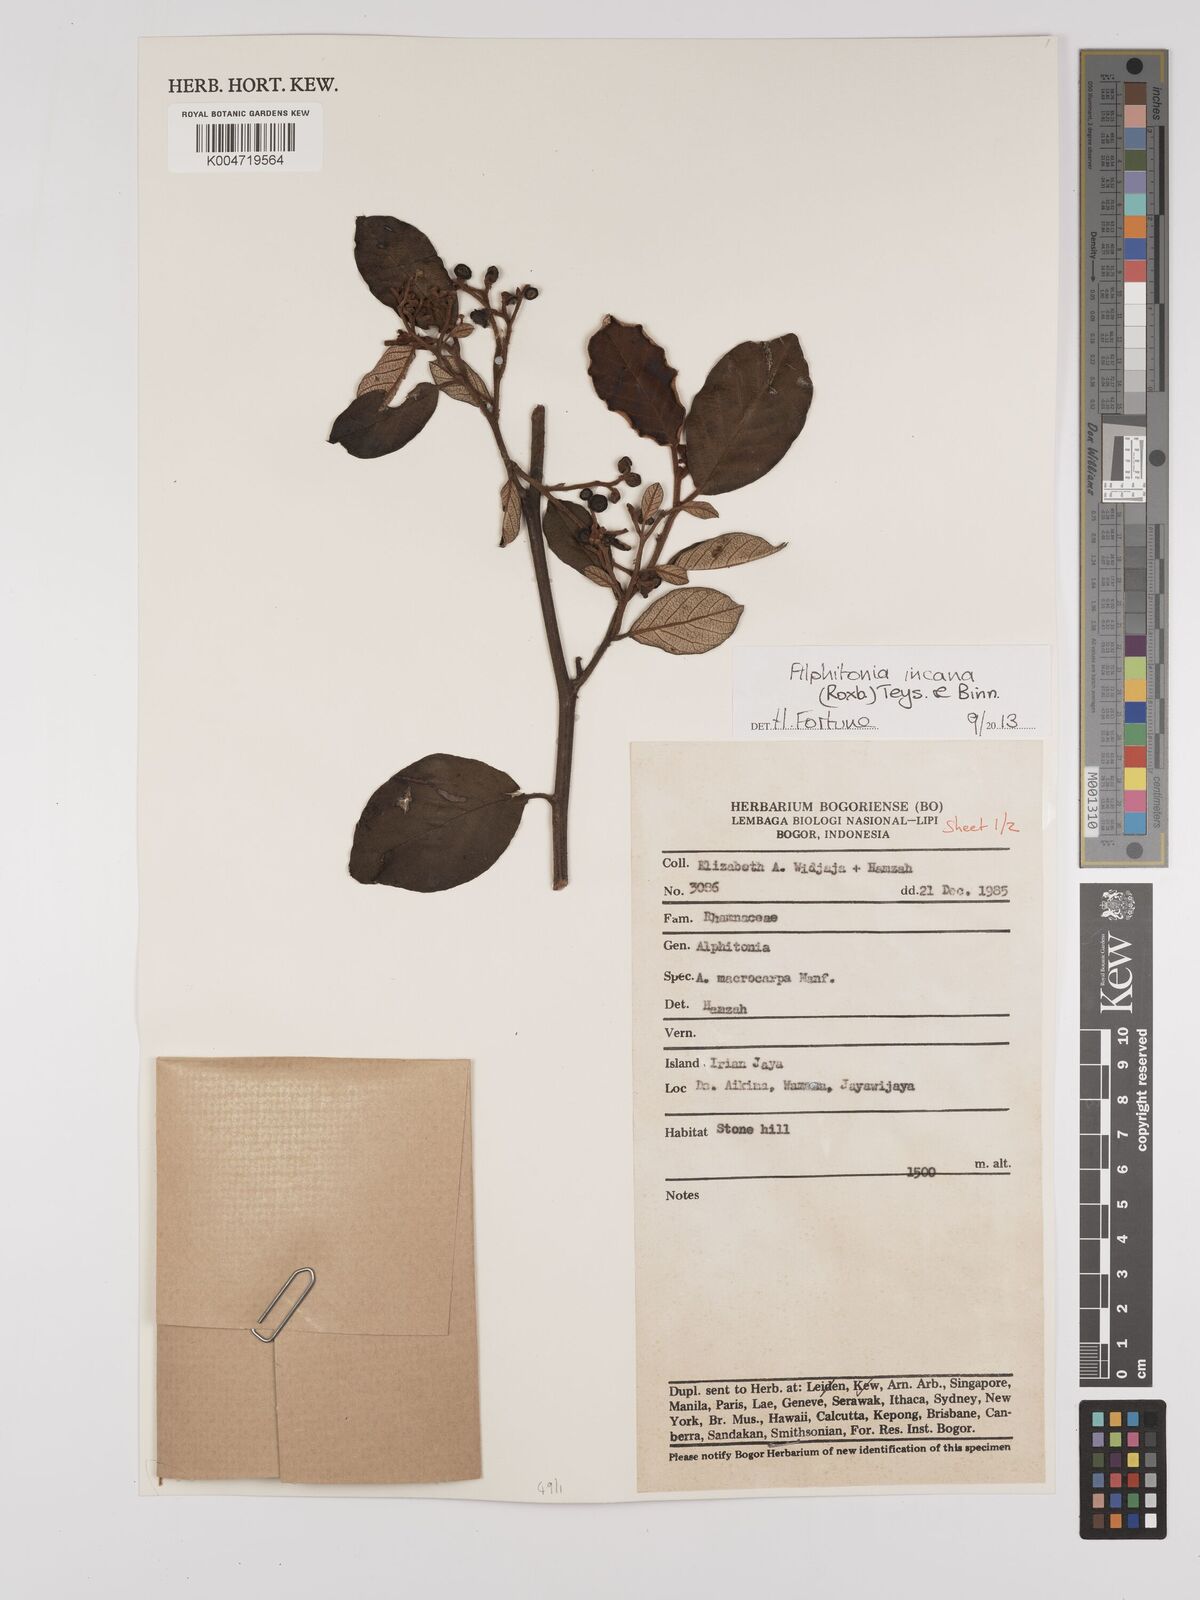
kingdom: Plantae
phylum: Tracheophyta
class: Magnoliopsida
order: Rosales
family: Rhamnaceae
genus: Alphitonia
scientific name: Alphitonia incana
